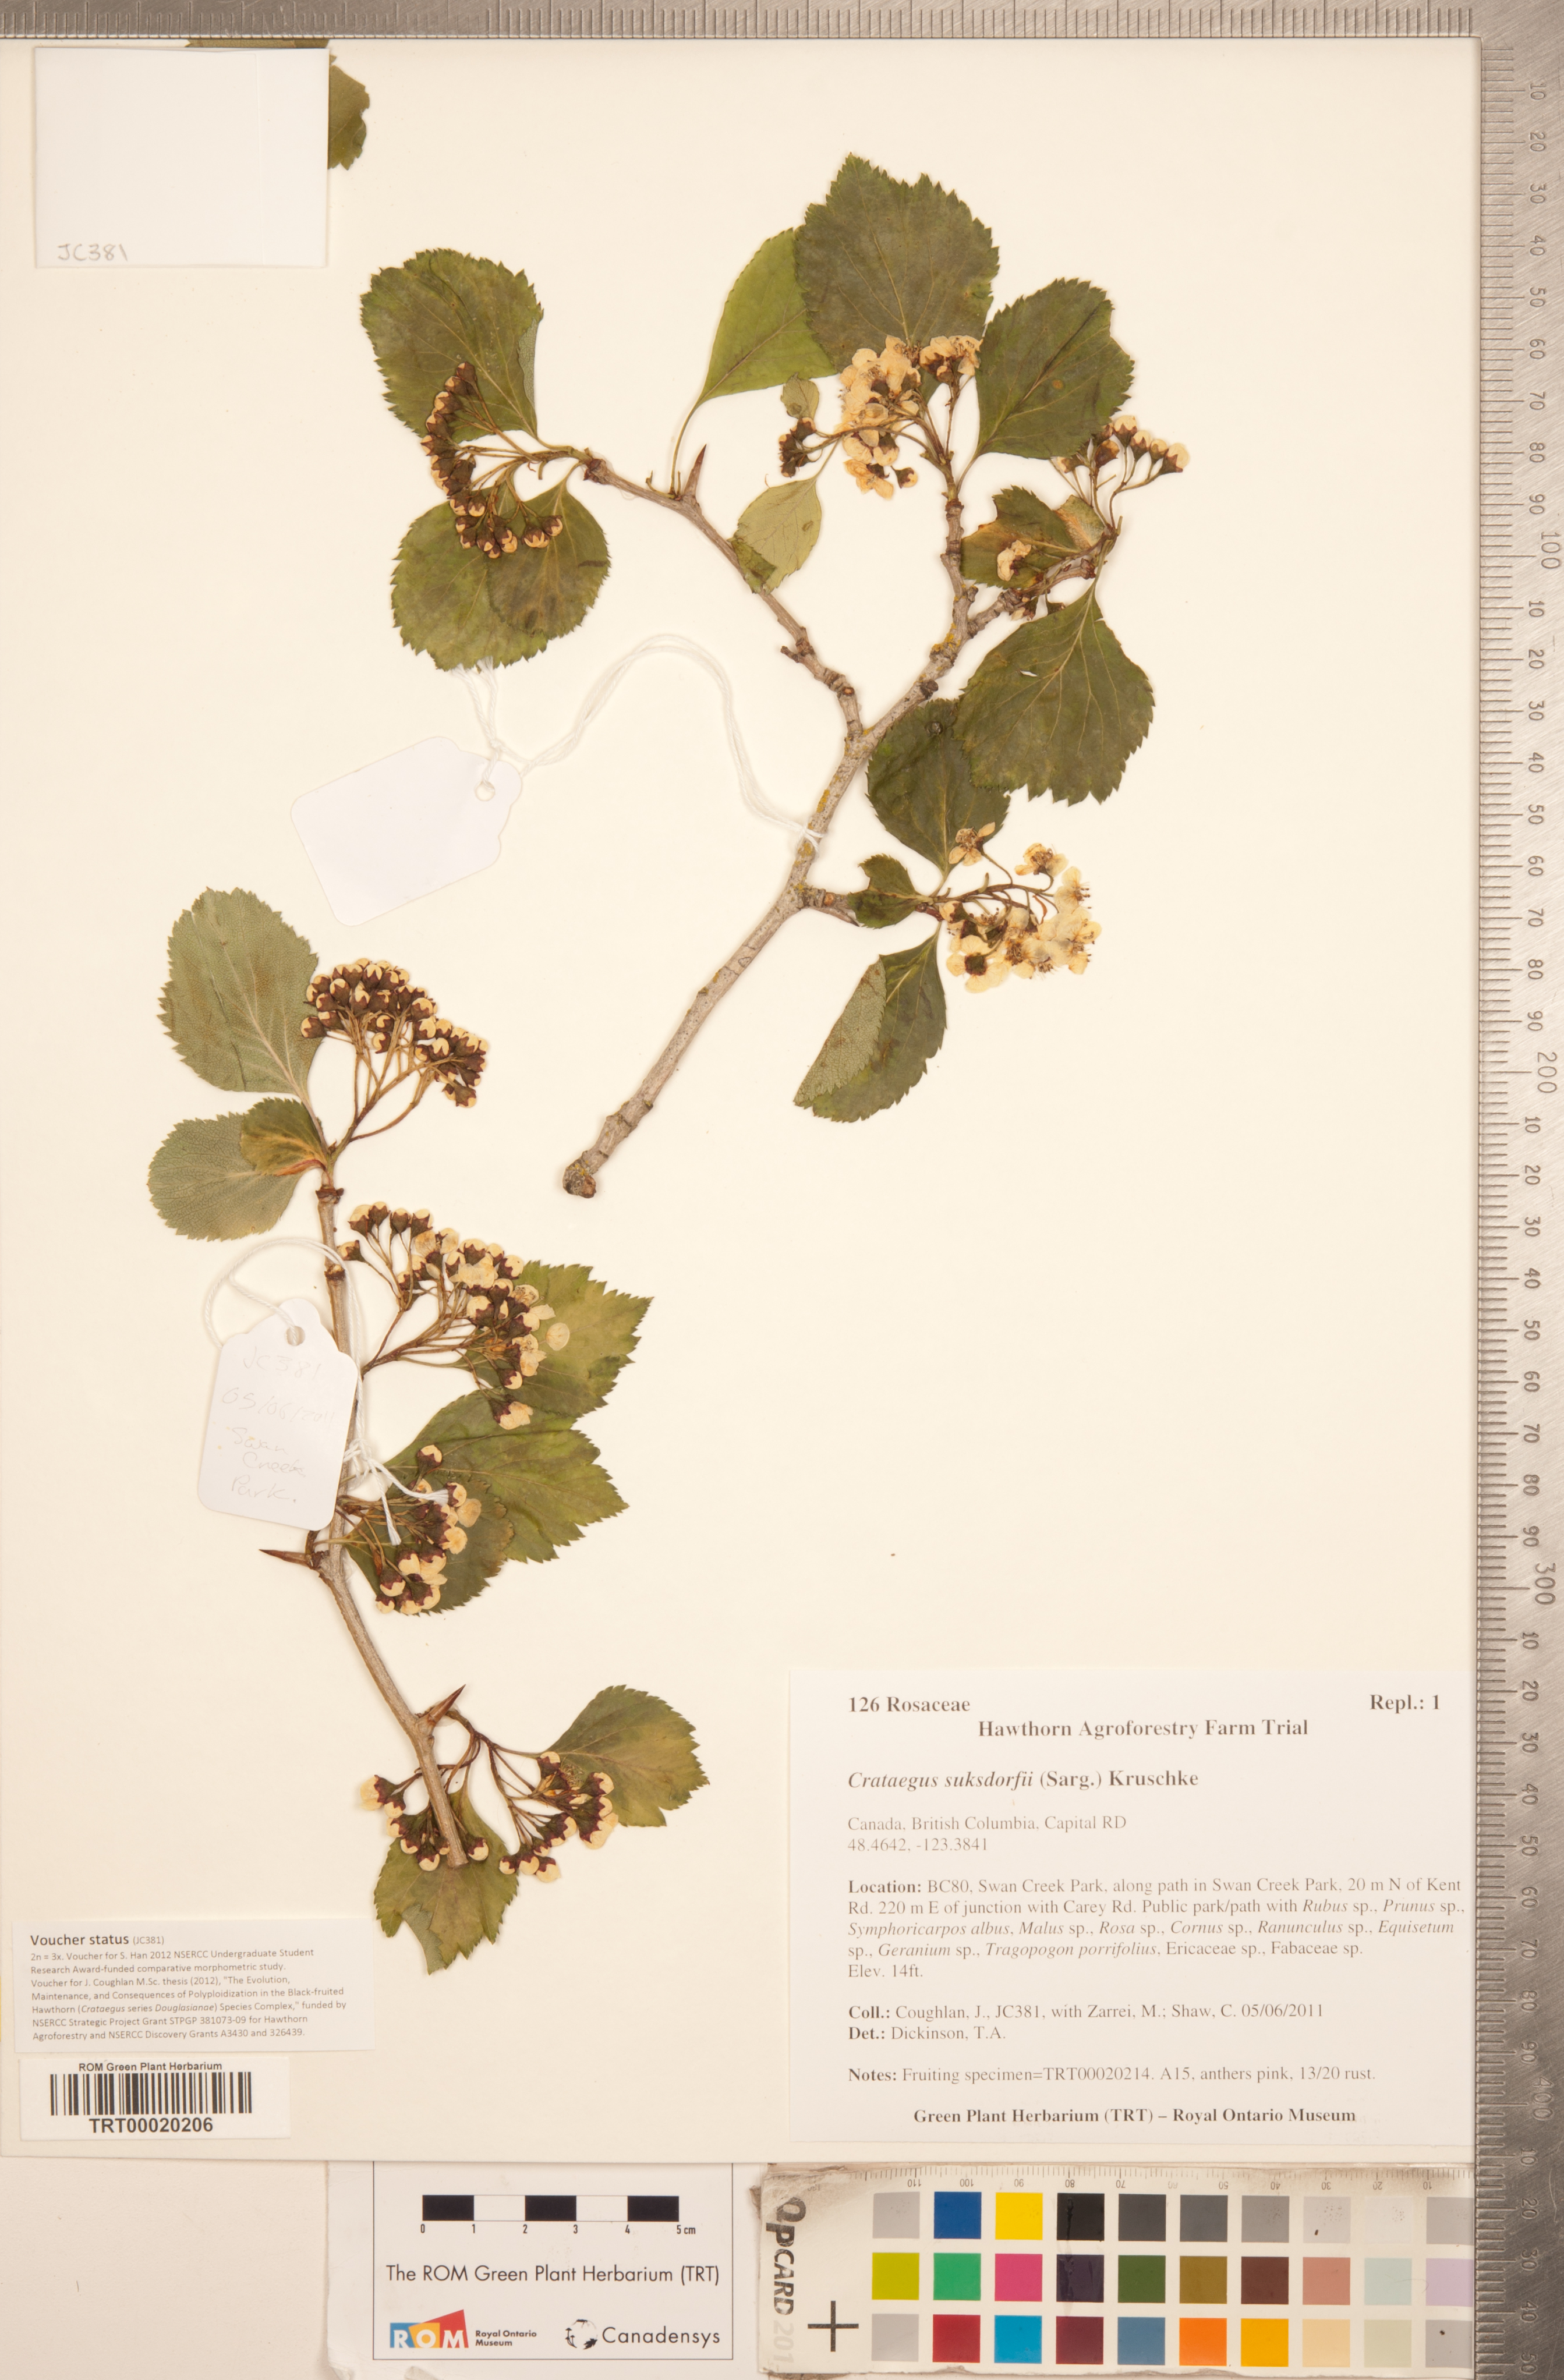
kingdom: Plantae
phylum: Tracheophyta
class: Magnoliopsida
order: Rosales
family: Rosaceae
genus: Crataegus
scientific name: Crataegus gaylussacia
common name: Huckleberry hawthorn
